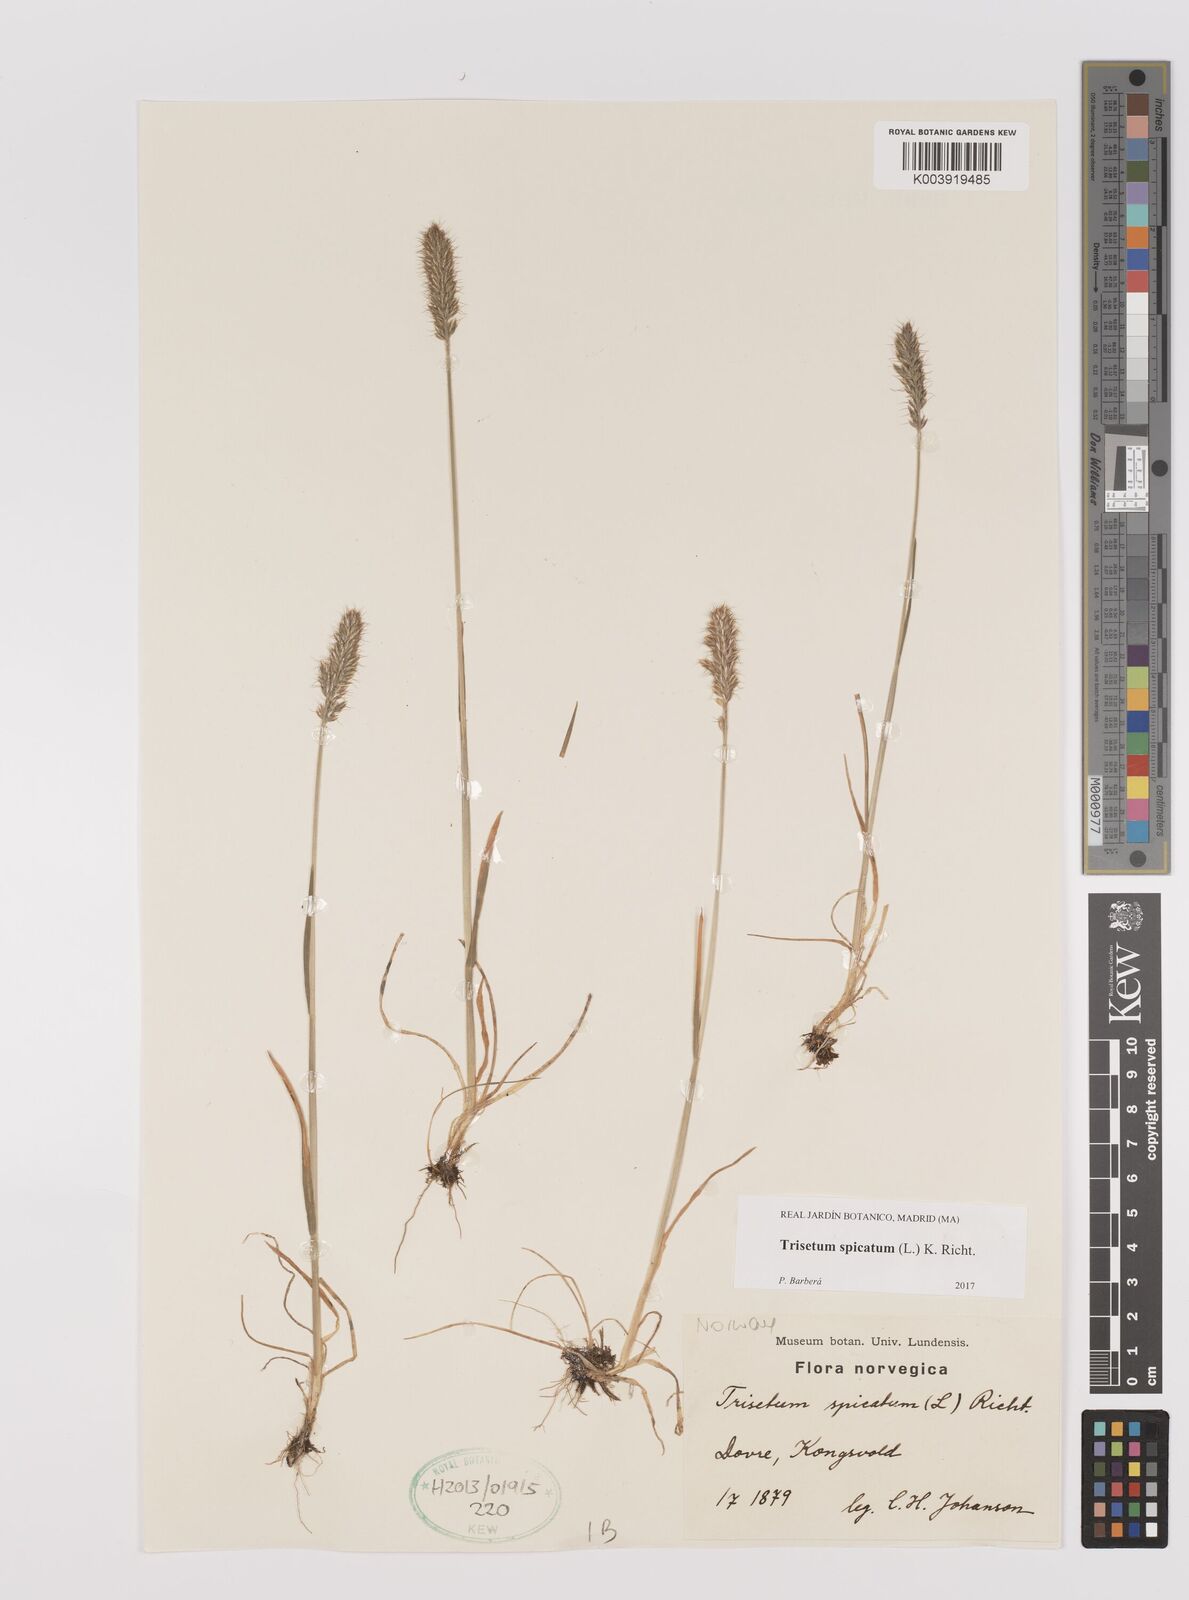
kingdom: Plantae
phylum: Tracheophyta
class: Liliopsida
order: Poales
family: Poaceae
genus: Koeleria
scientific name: Koeleria spicata
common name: Mountain trisetum
